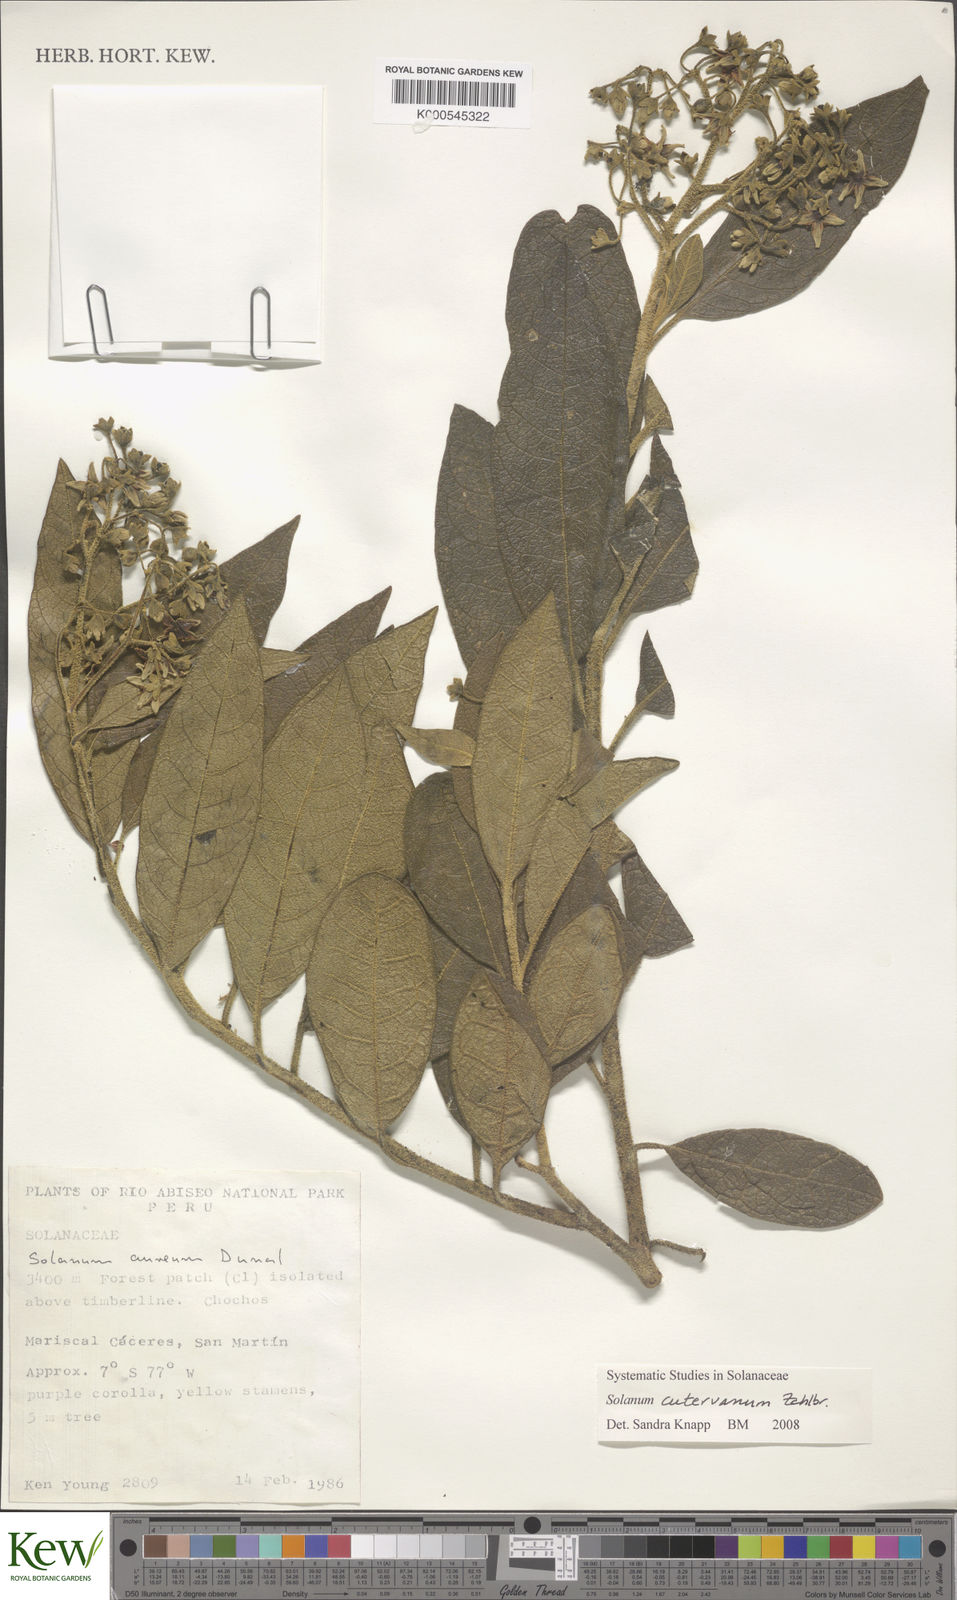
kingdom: Plantae
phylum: Tracheophyta
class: Magnoliopsida
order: Solanales
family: Solanaceae
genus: Solanum
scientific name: Solanum cutervanum
